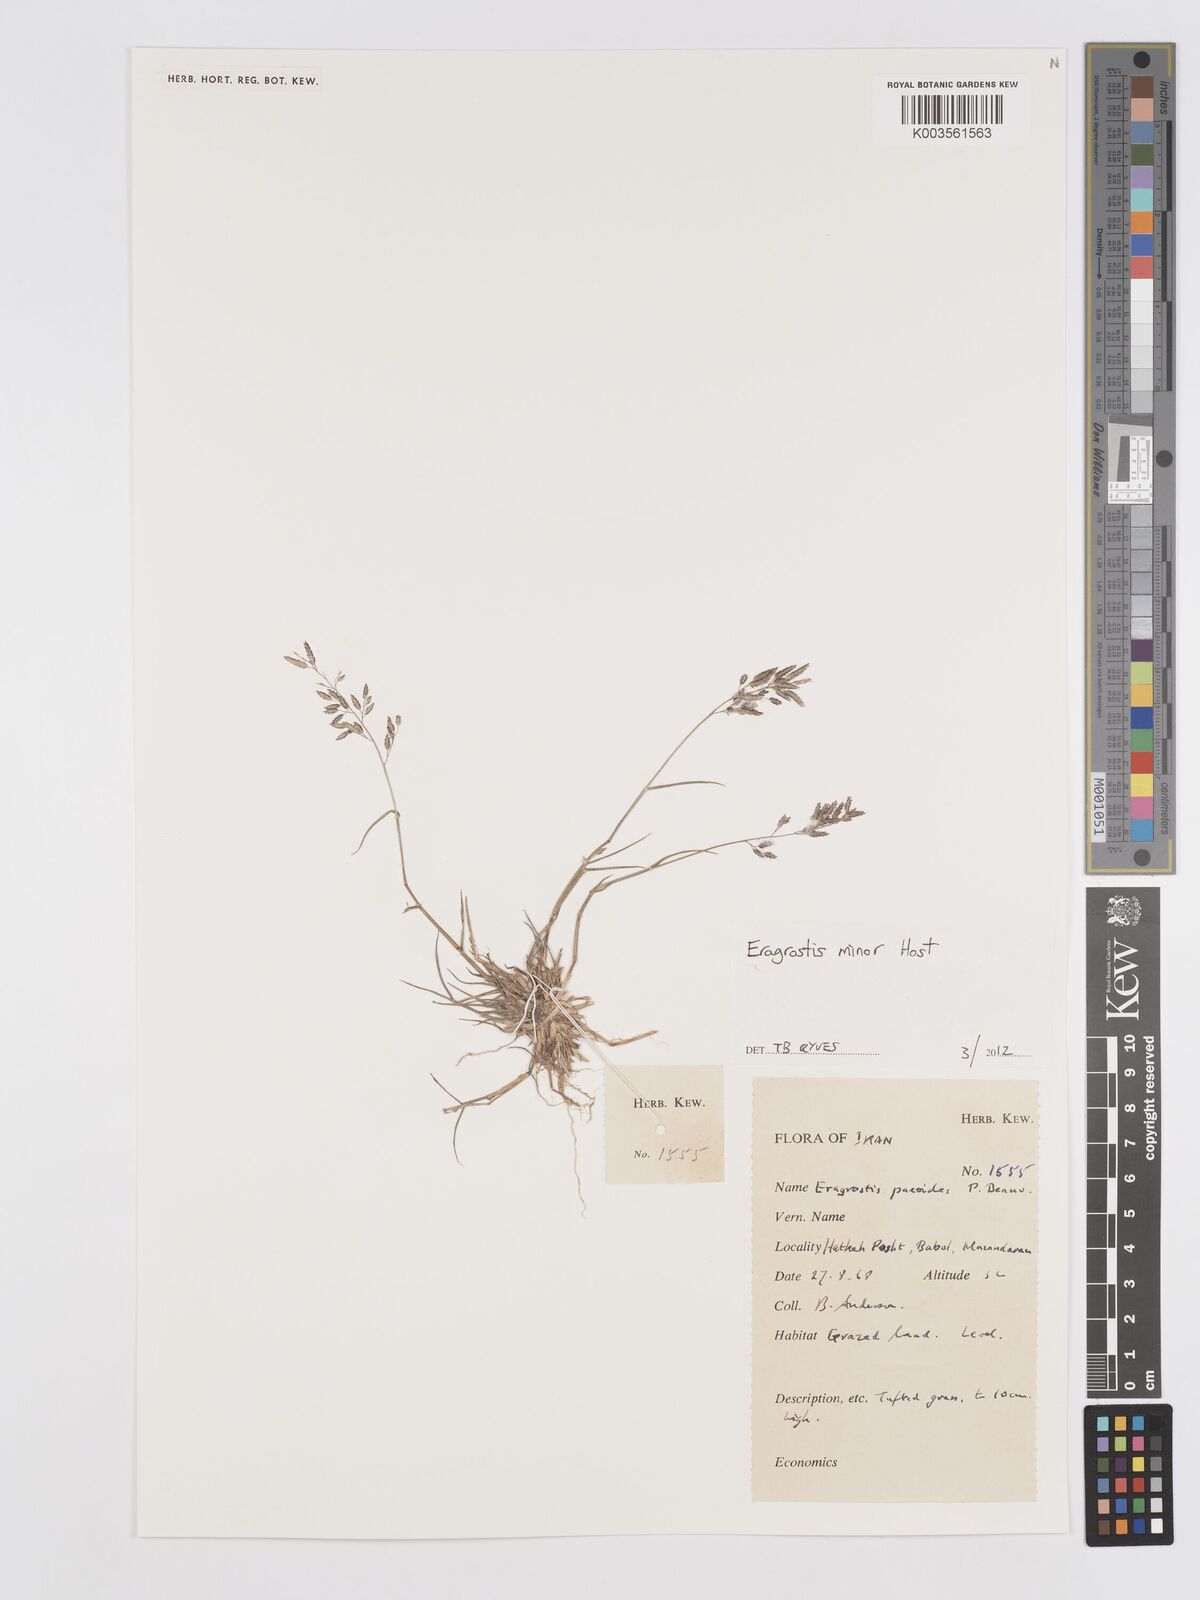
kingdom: Plantae
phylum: Tracheophyta
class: Liliopsida
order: Poales
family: Poaceae
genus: Eragrostis
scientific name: Eragrostis minor
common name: Small love-grass
